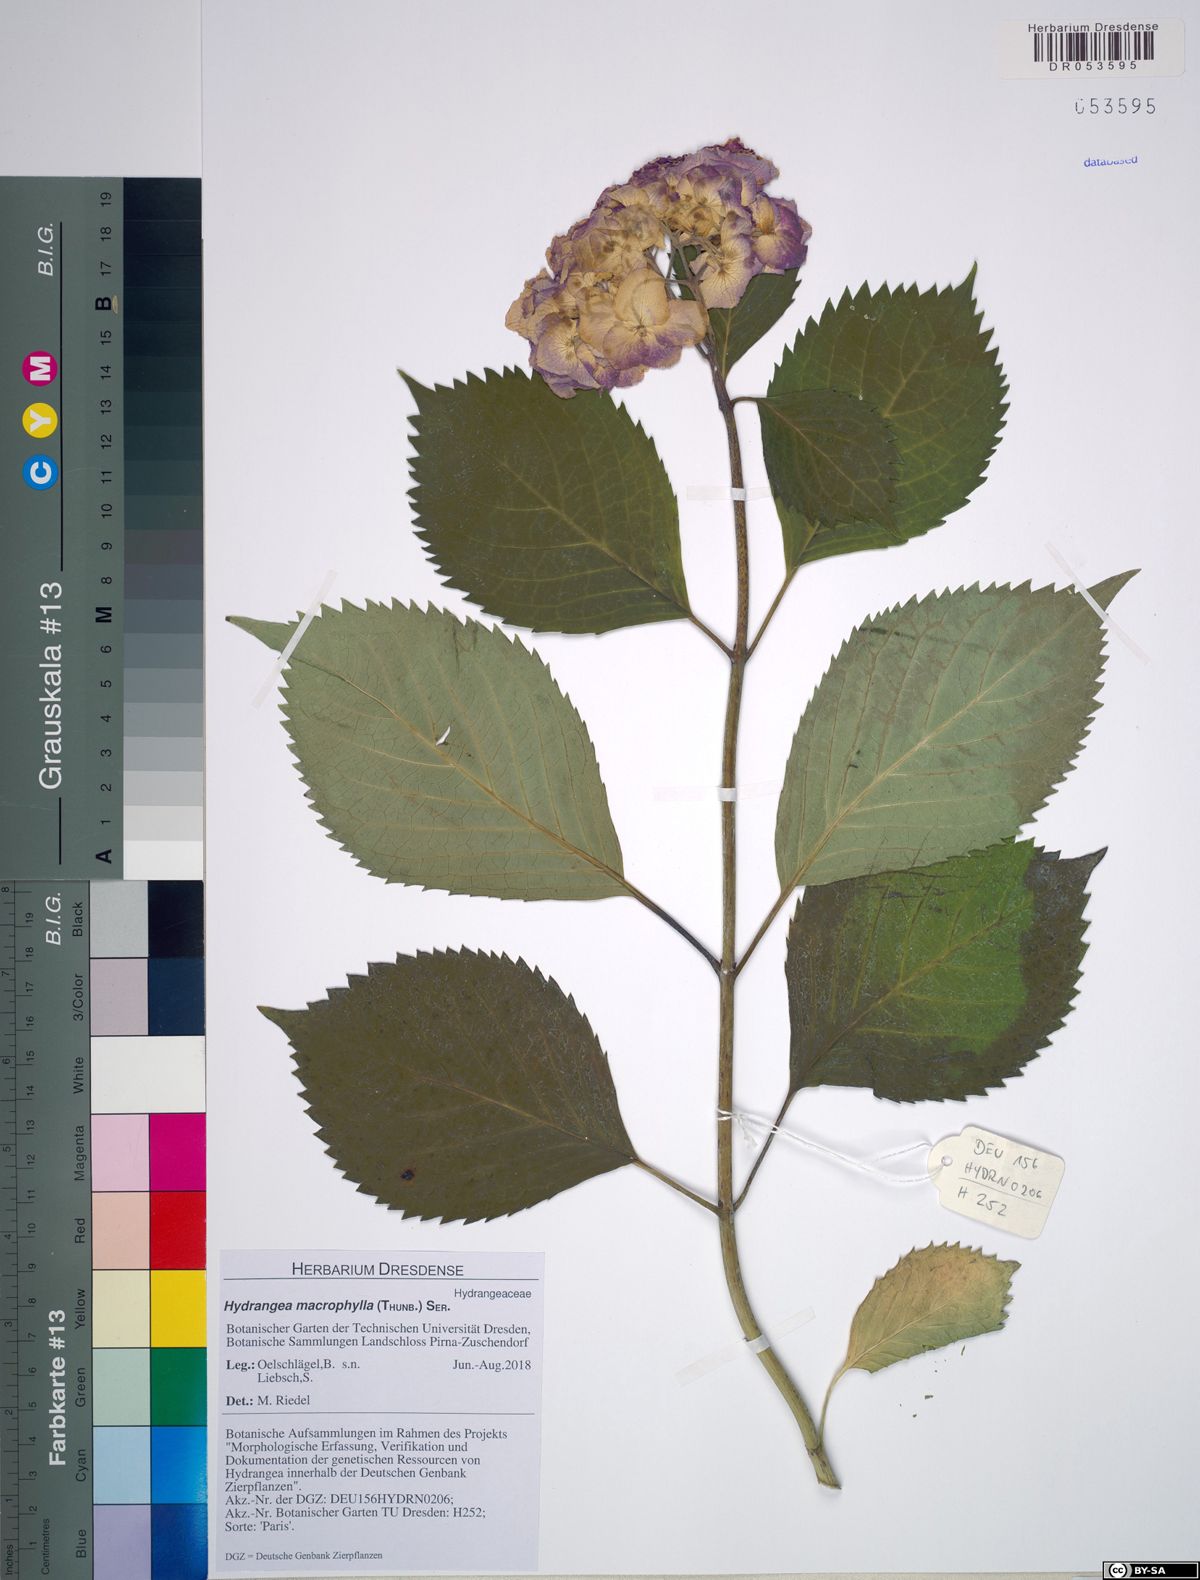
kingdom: Plantae
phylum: Tracheophyta
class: Magnoliopsida
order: Cornales
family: Hydrangeaceae
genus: Hydrangea
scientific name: Hydrangea macrophylla
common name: Hydrangea
